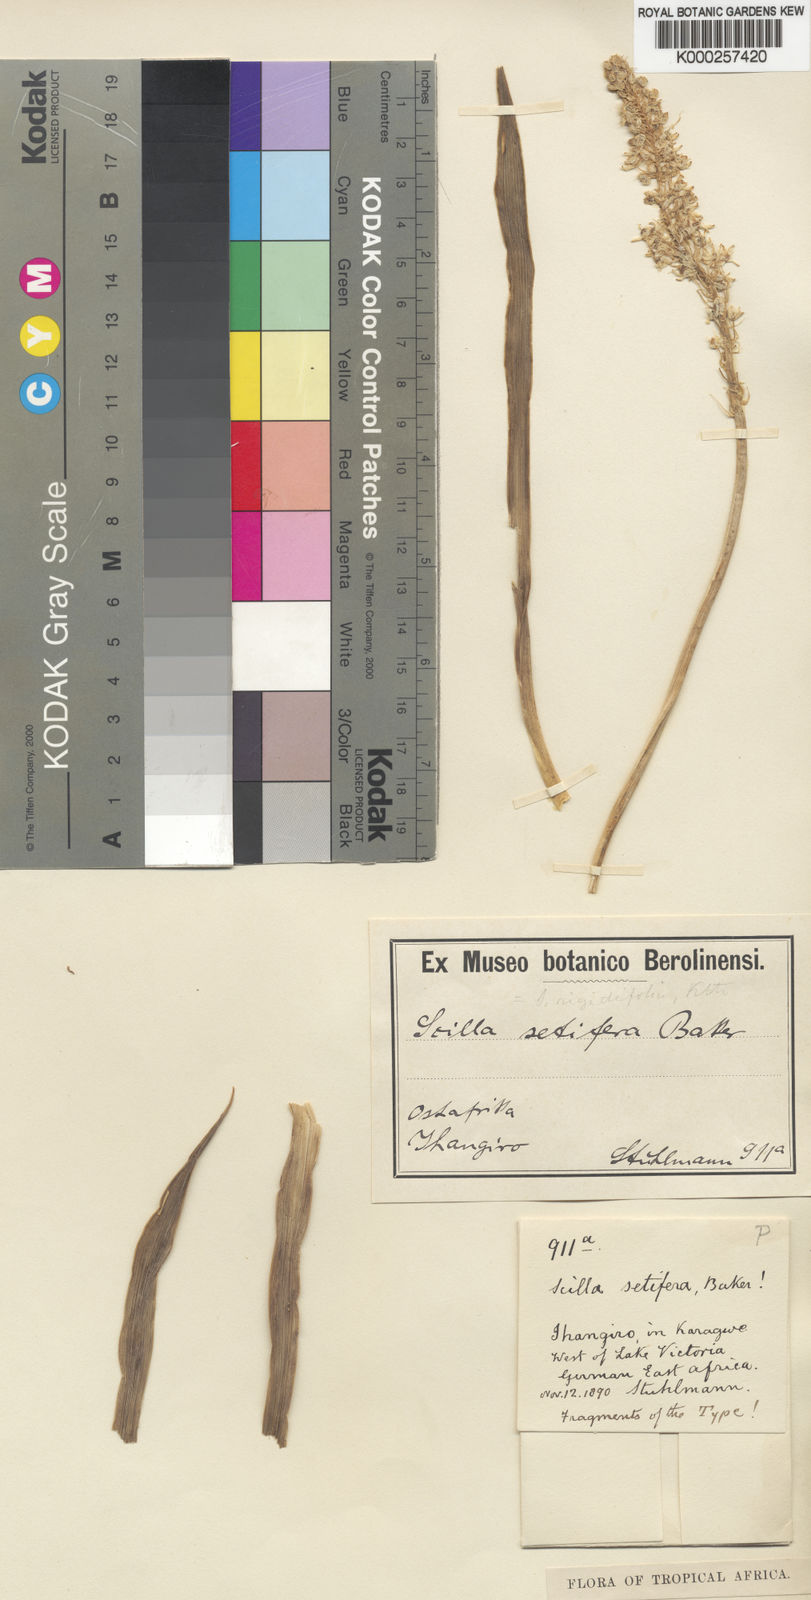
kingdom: Plantae
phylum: Tracheophyta
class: Liliopsida
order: Asparagales
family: Asparagaceae
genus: Schizocarphus
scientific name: Schizocarphus nervosus
